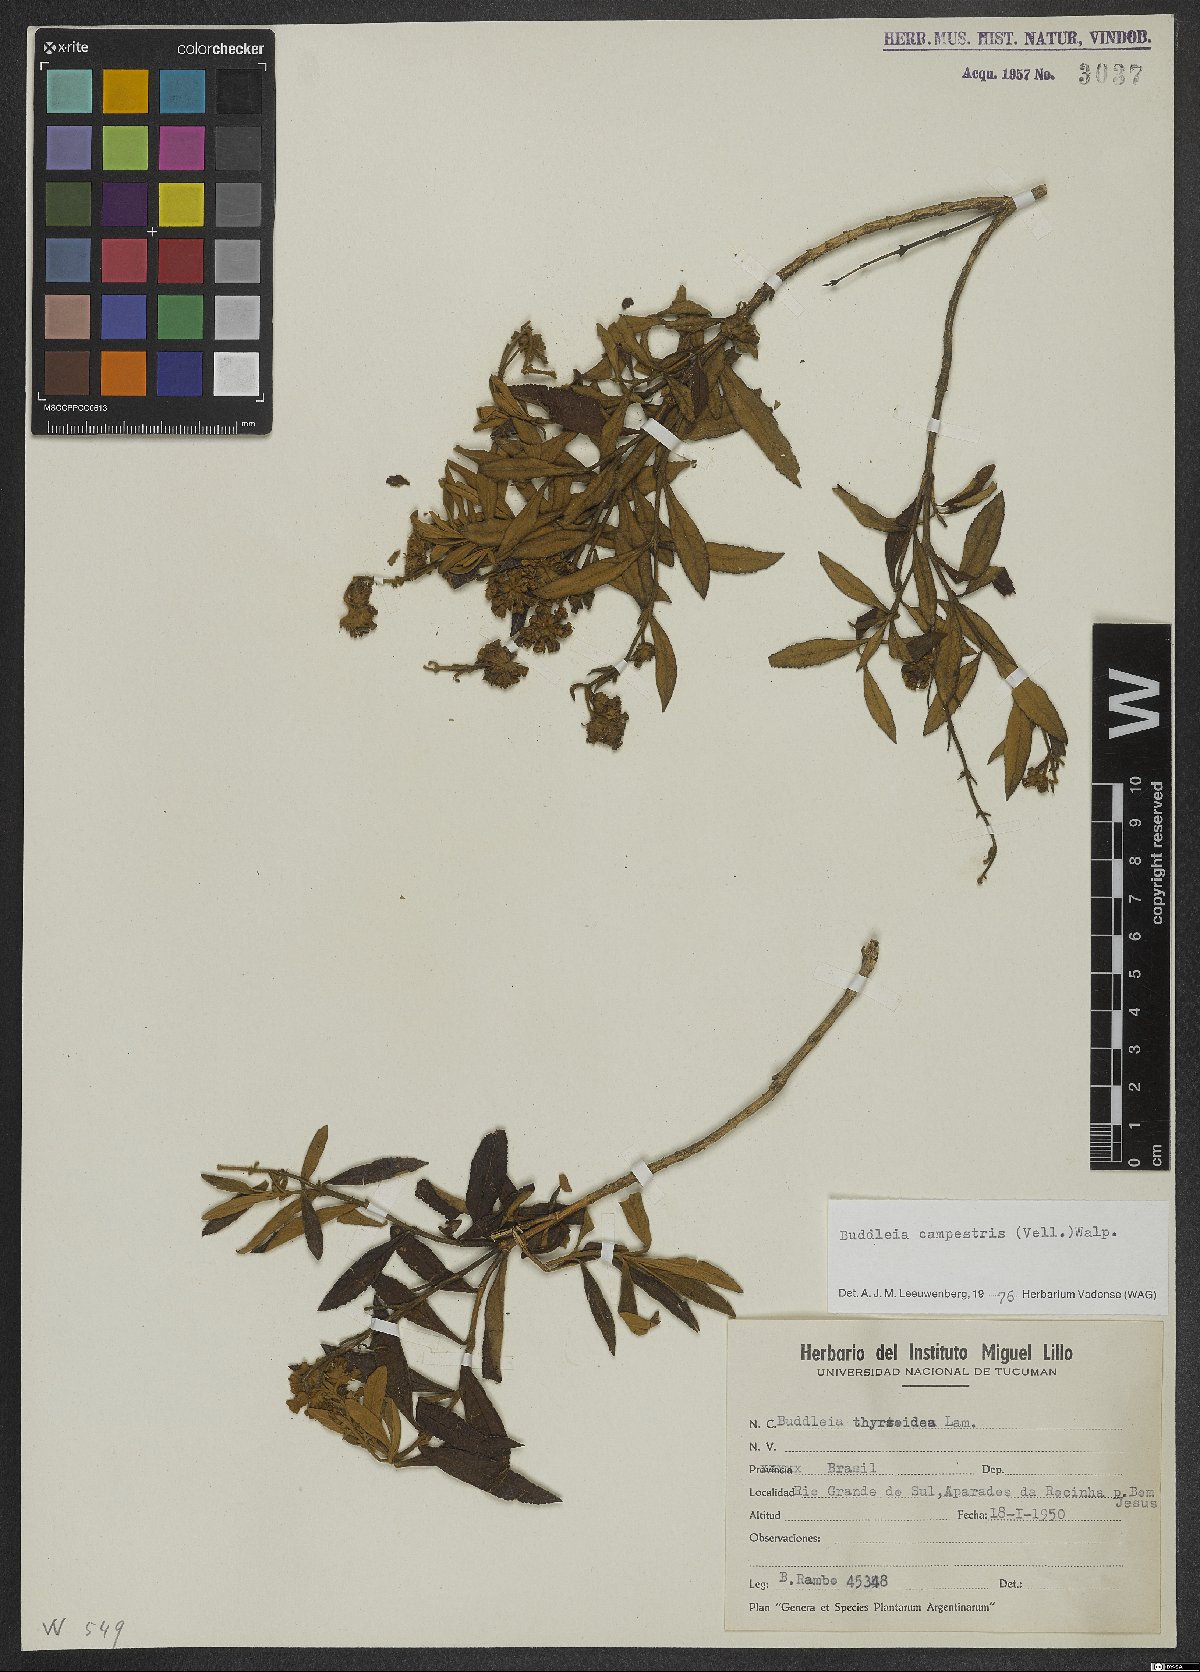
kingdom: Plantae
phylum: Tracheophyta
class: Magnoliopsida
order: Lamiales
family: Scrophulariaceae
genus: Buddleja
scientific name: Buddleja elegans
